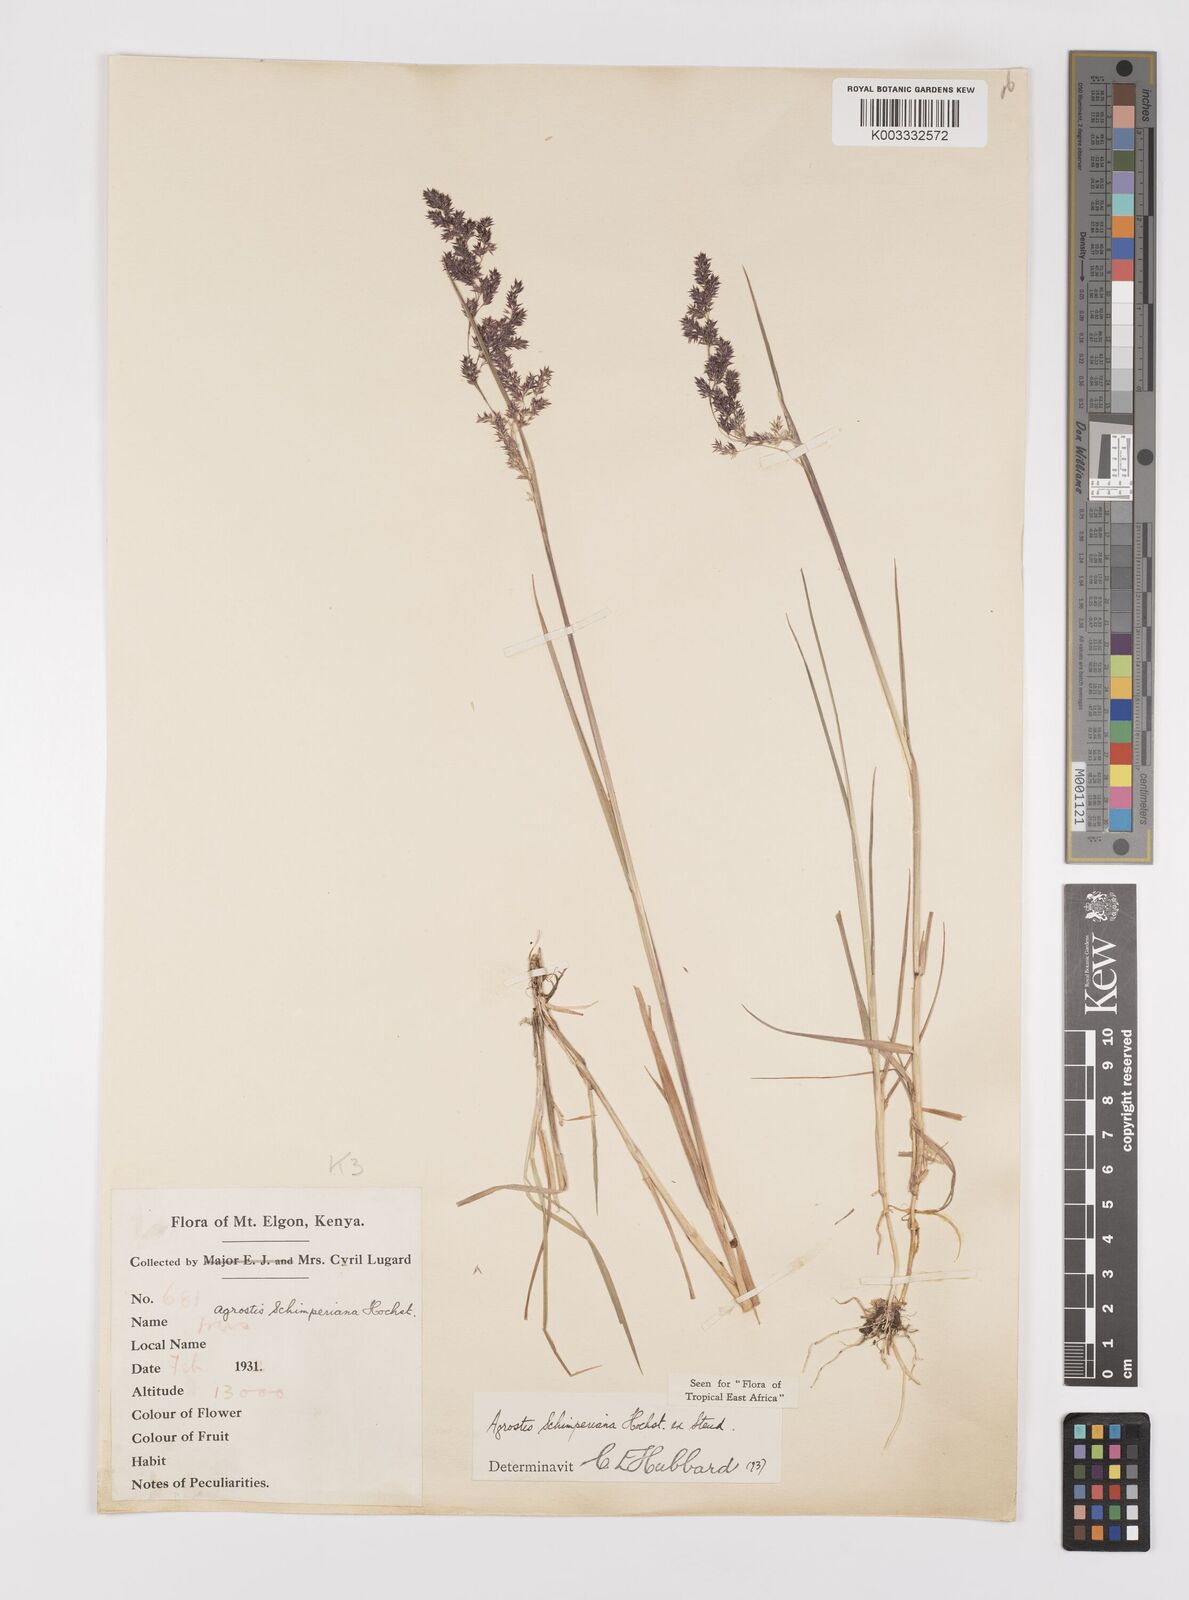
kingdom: Plantae
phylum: Tracheophyta
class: Liliopsida
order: Poales
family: Poaceae
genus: Polypogon
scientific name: Polypogon schimperianus
